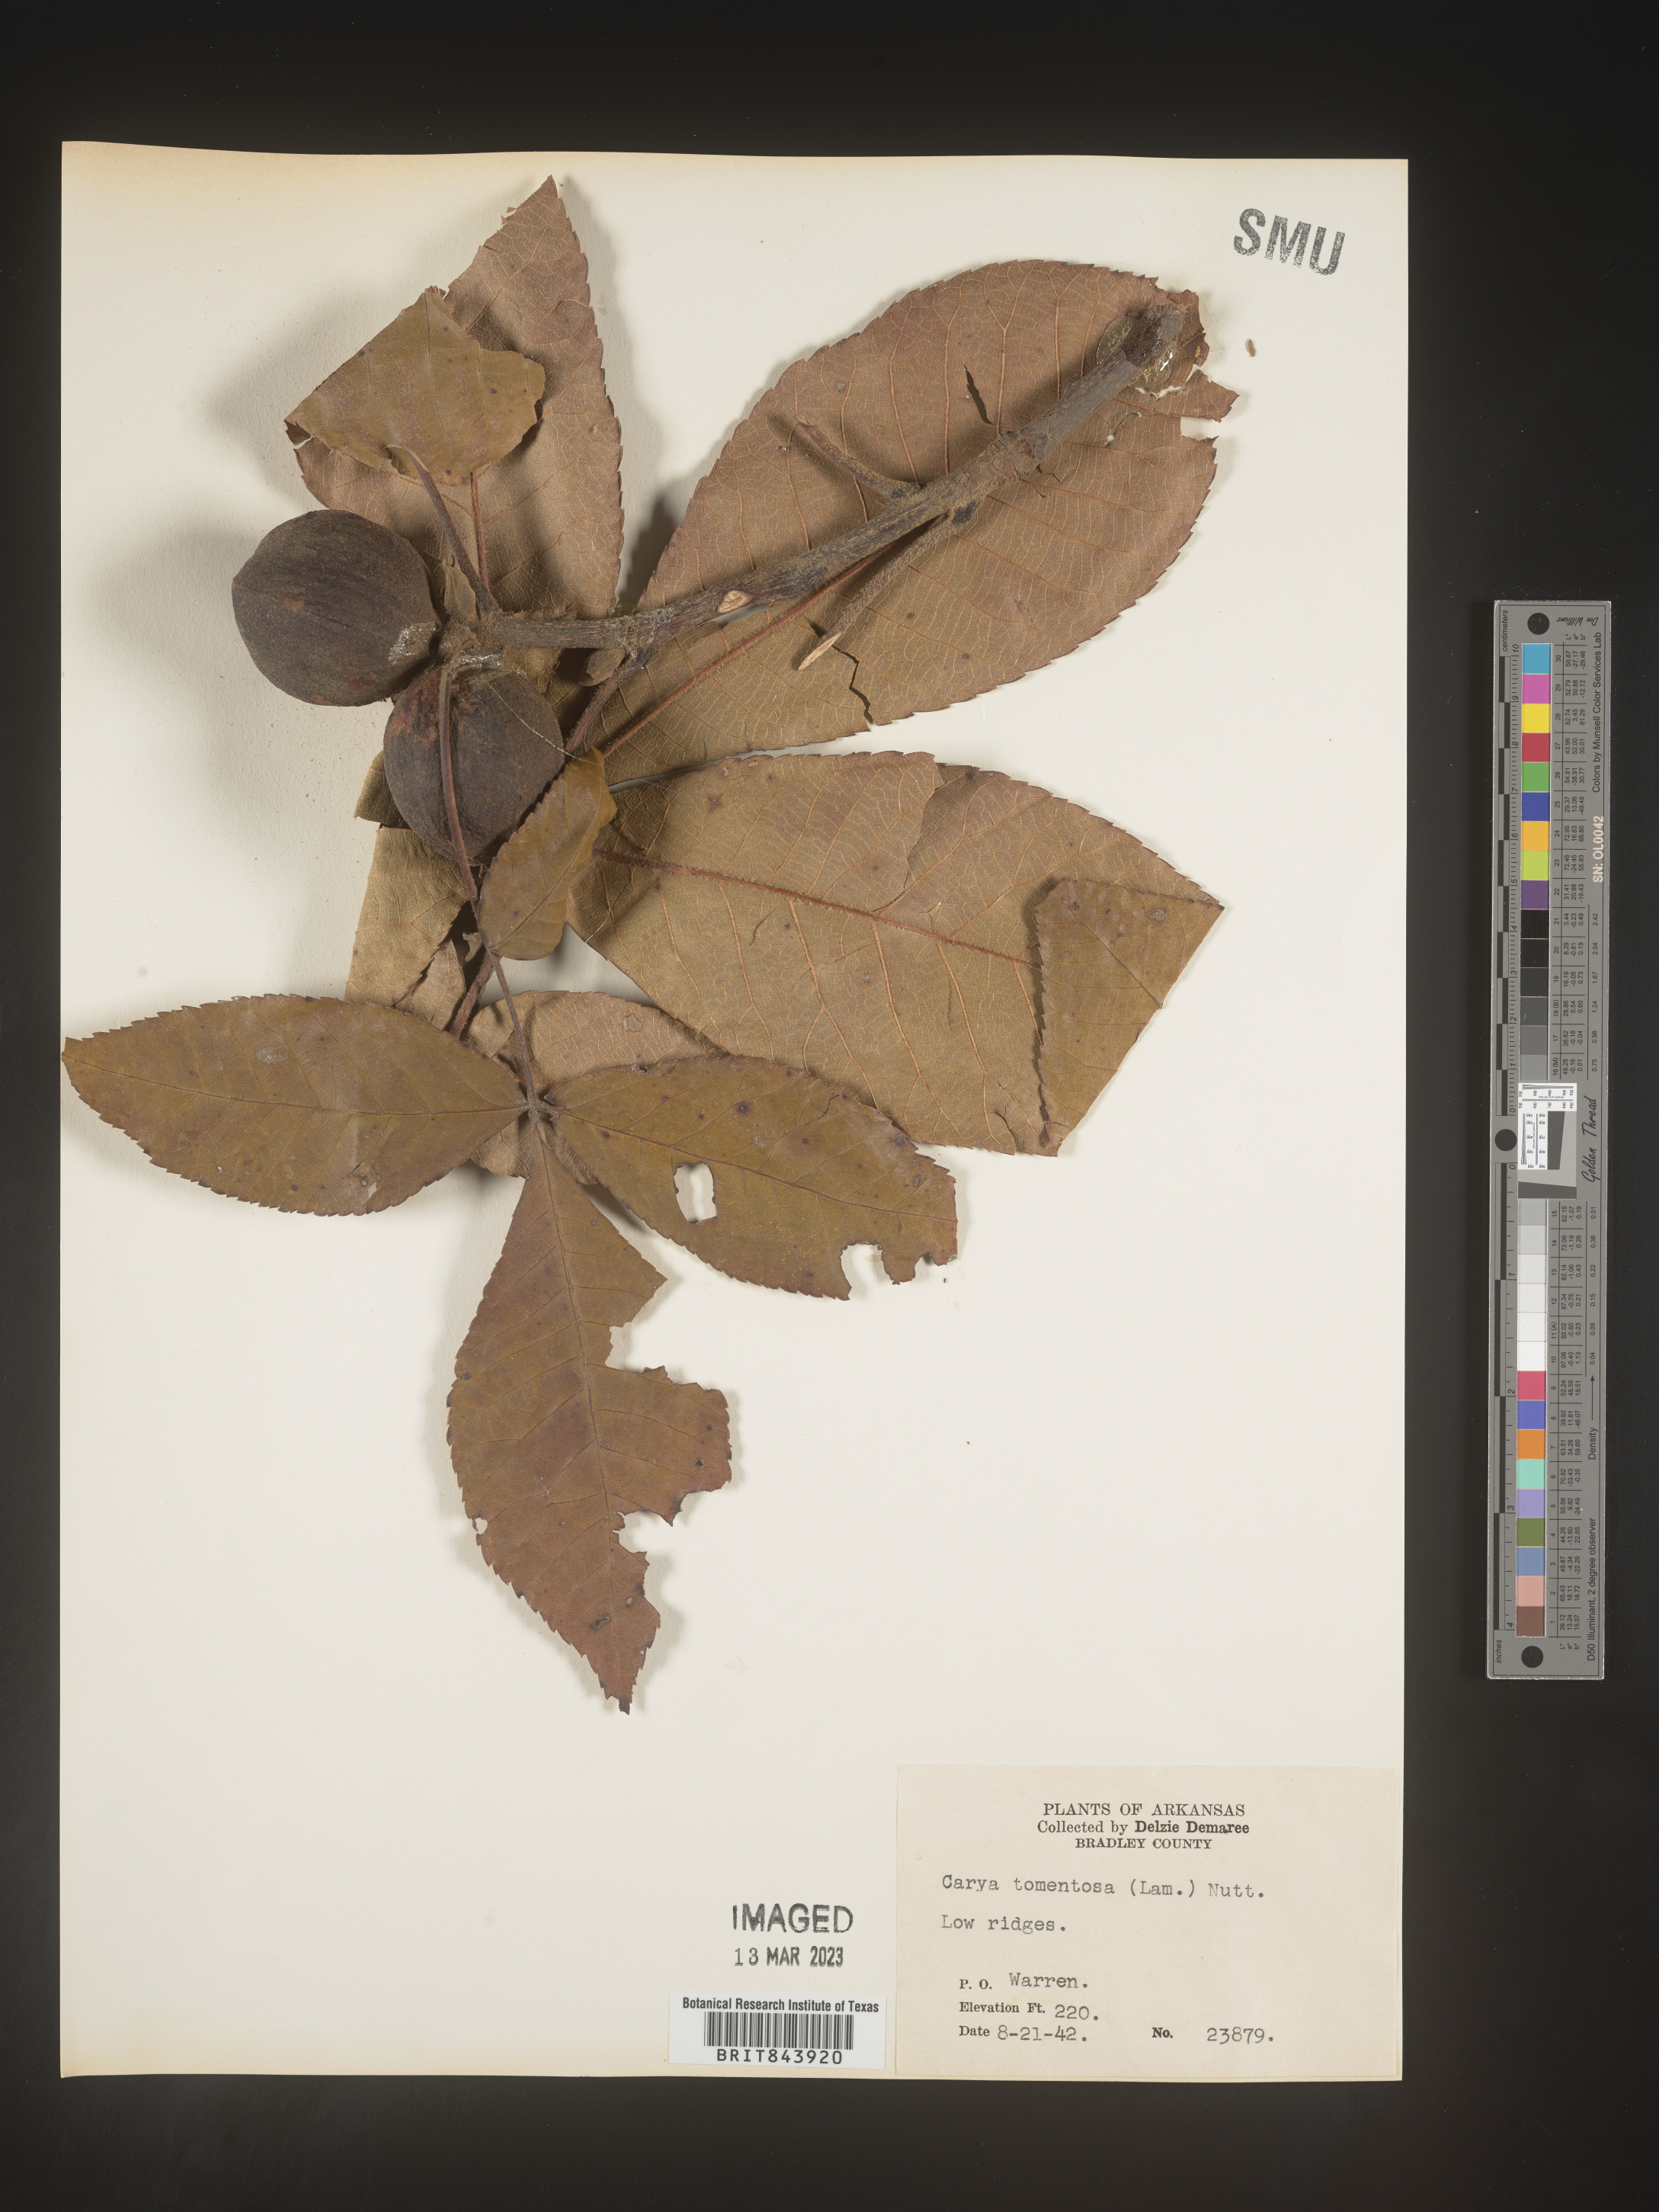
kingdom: Plantae
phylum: Tracheophyta
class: Magnoliopsida
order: Fagales
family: Juglandaceae
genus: Carya
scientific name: Carya alba
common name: Mockernut hickory
